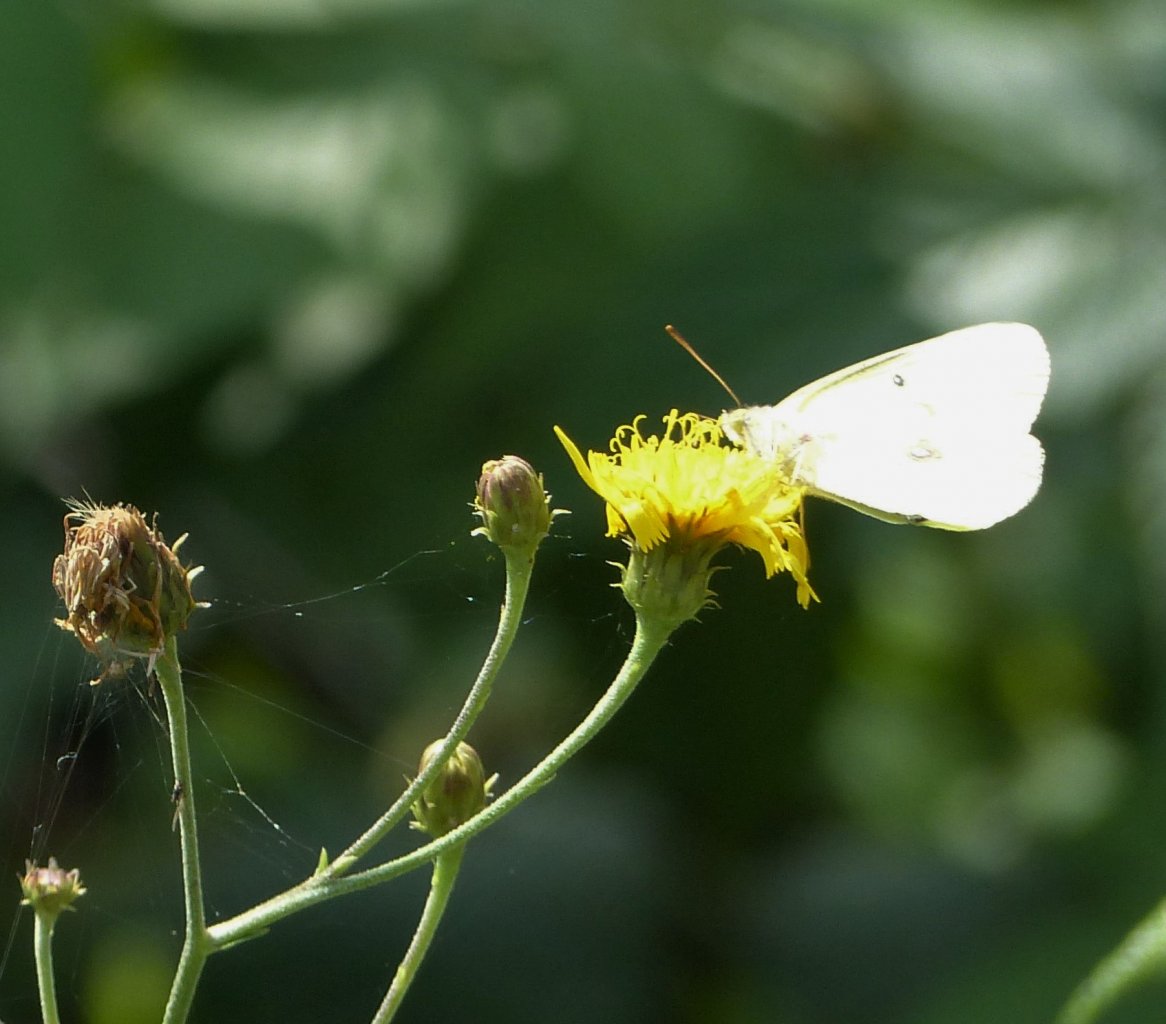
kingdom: Animalia
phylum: Arthropoda
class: Insecta
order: Lepidoptera
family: Pieridae
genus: Colias
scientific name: Colias
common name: Clouded Yellows
